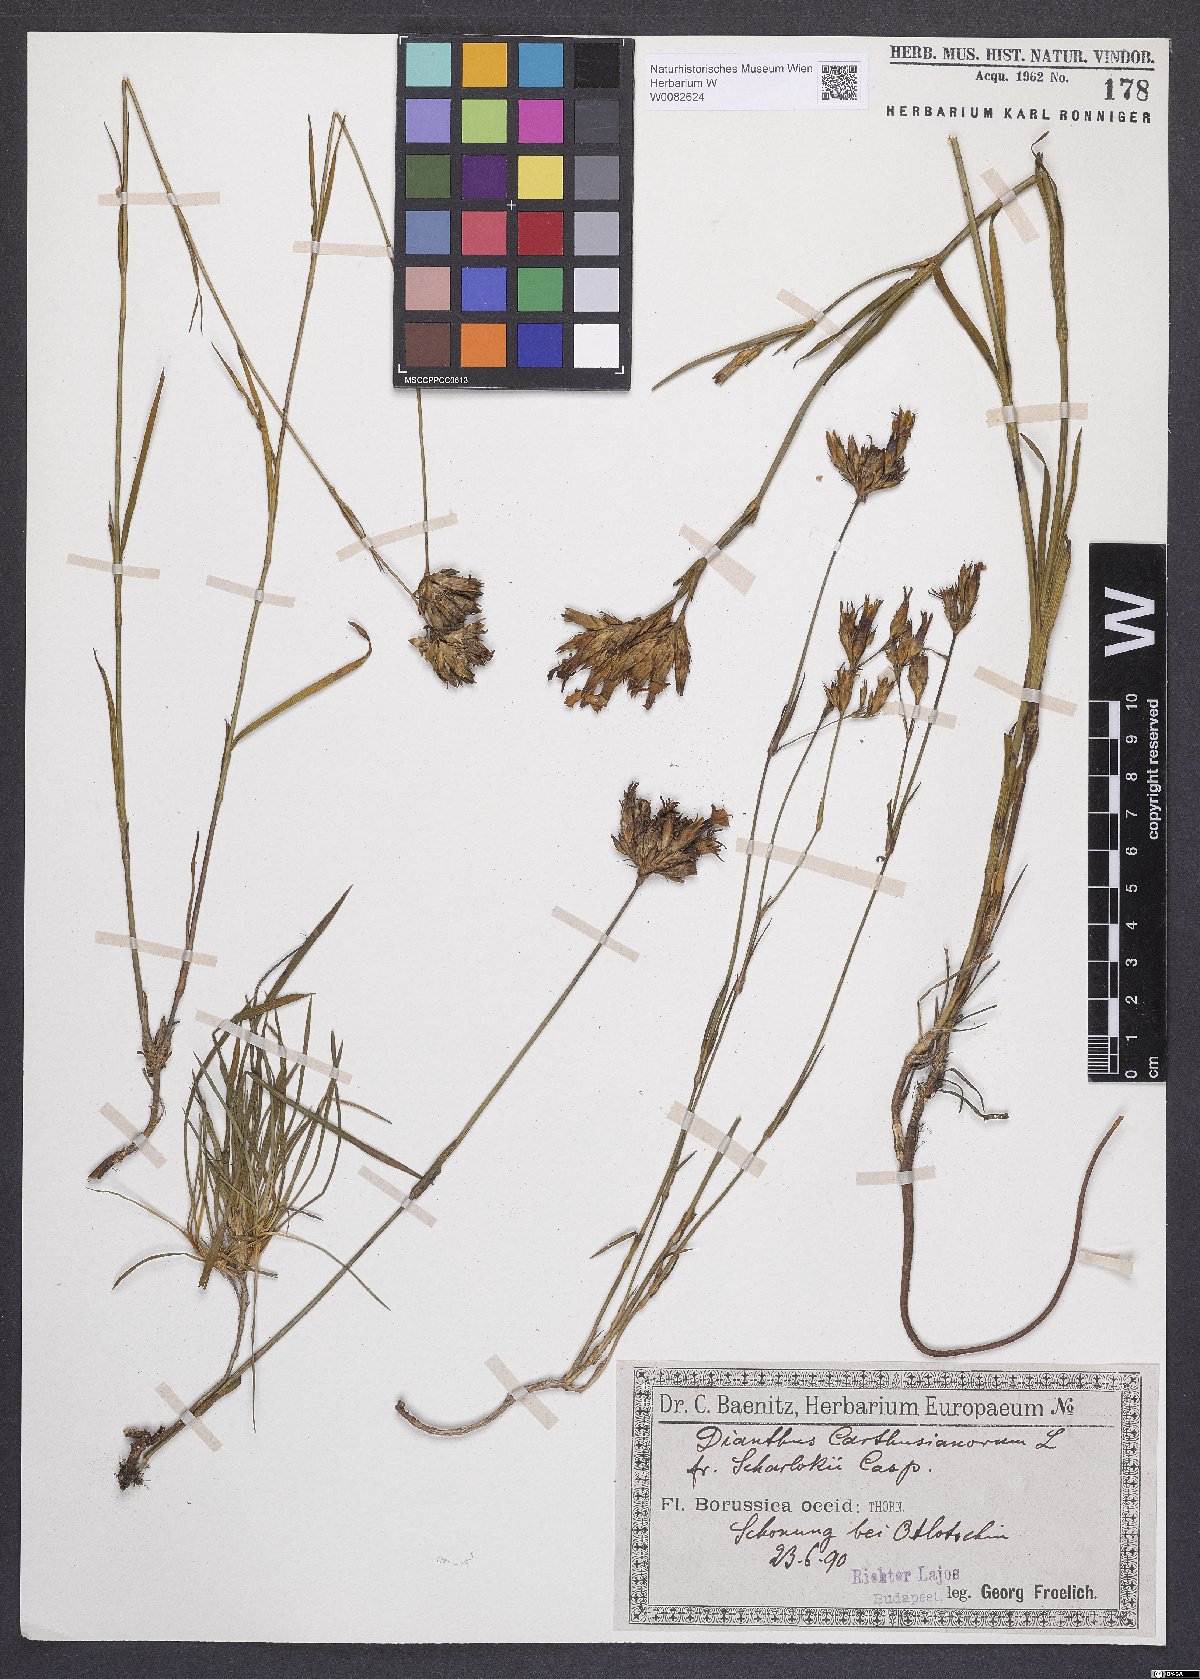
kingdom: Plantae
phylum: Tracheophyta
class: Magnoliopsida
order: Caryophyllales
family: Caryophyllaceae
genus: Dianthus
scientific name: Dianthus carthusianorum
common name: Carthusian pink
